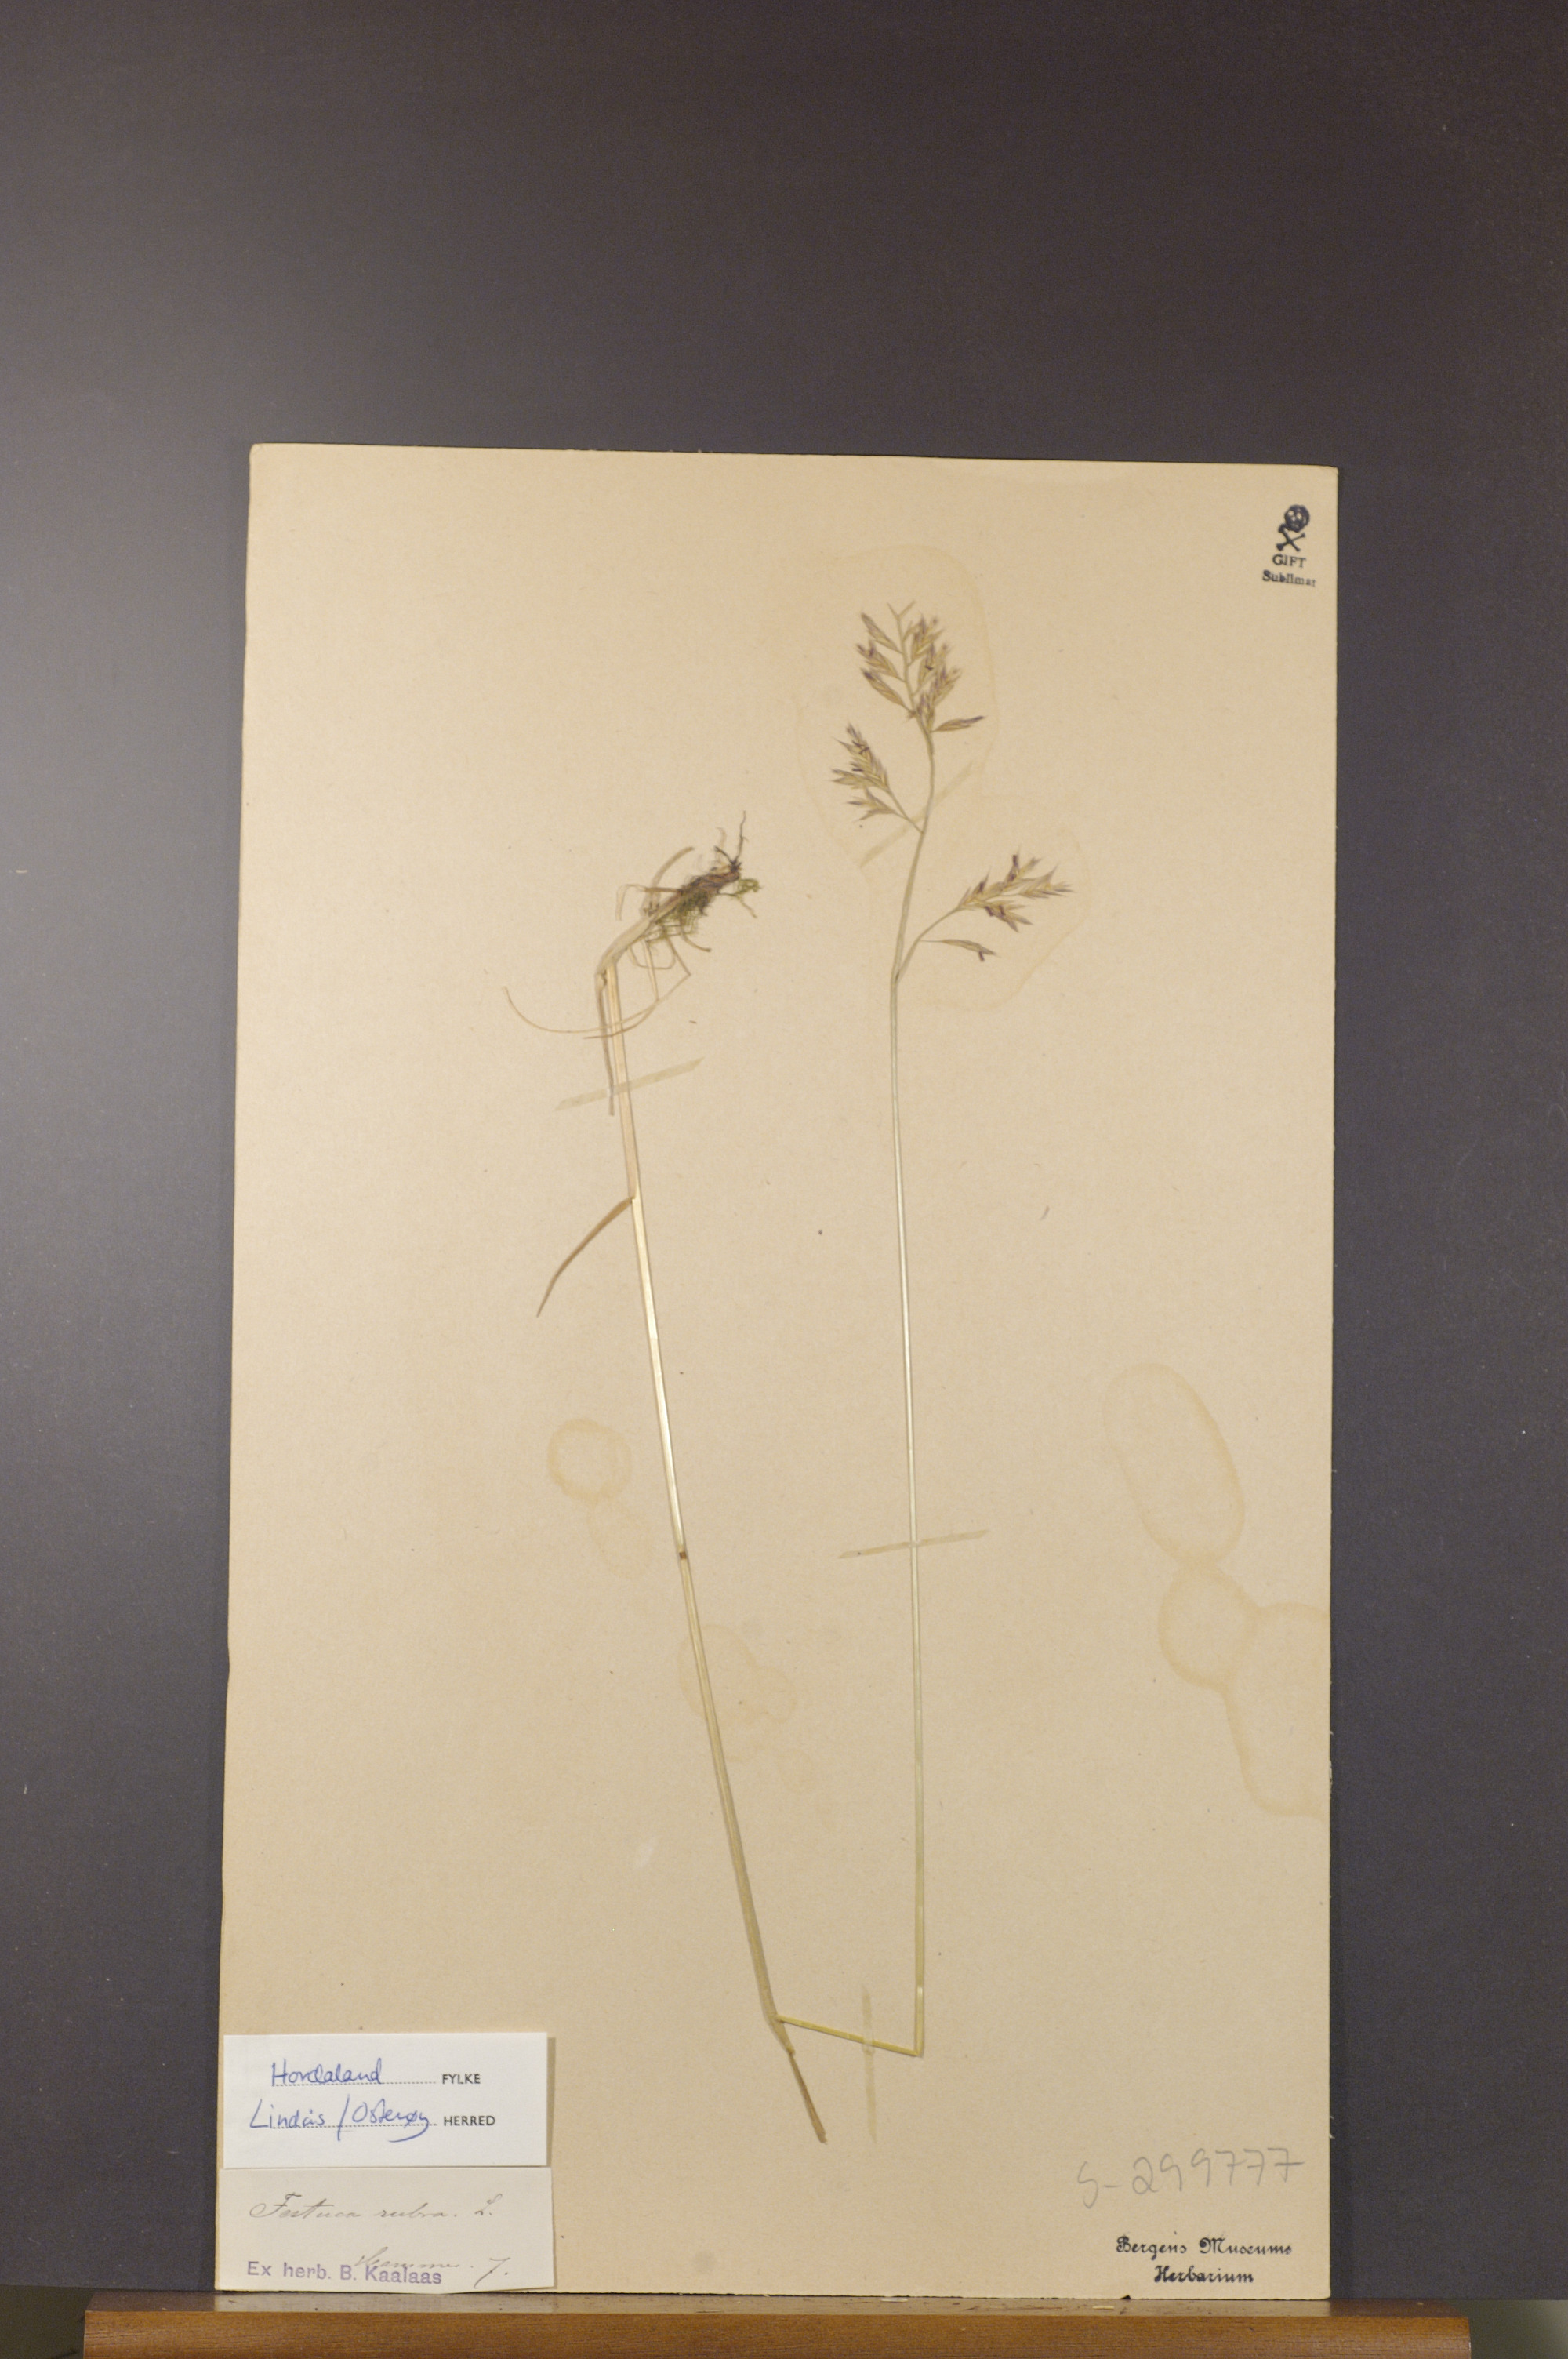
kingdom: Plantae
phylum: Tracheophyta
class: Liliopsida
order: Poales
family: Poaceae
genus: Festuca
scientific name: Festuca rubra
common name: Red fescue
